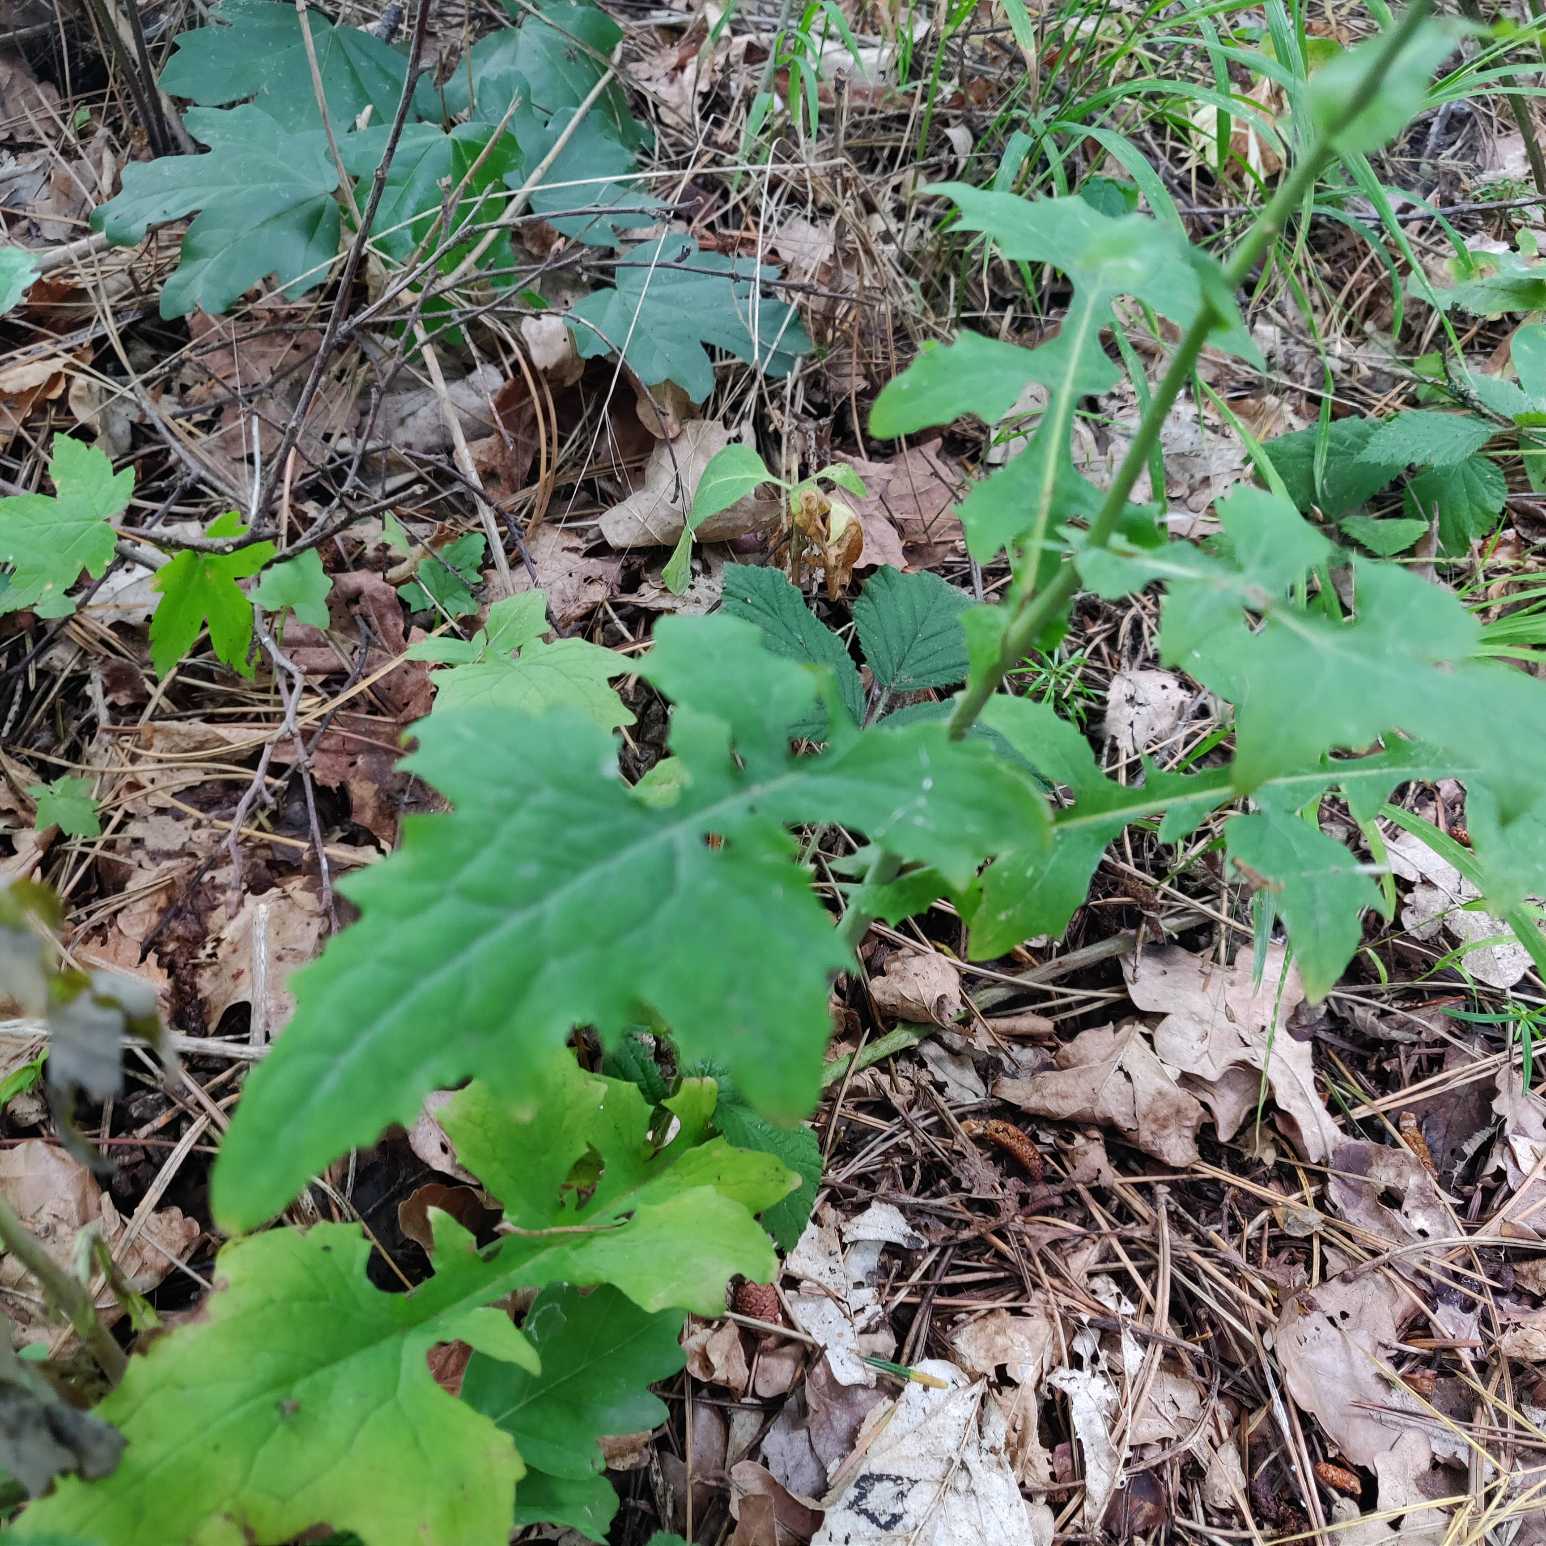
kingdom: Plantae
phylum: Tracheophyta
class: Magnoliopsida
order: Asterales
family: Asteraceae
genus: Mycelis
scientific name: Mycelis muralis
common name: Skov-salat
